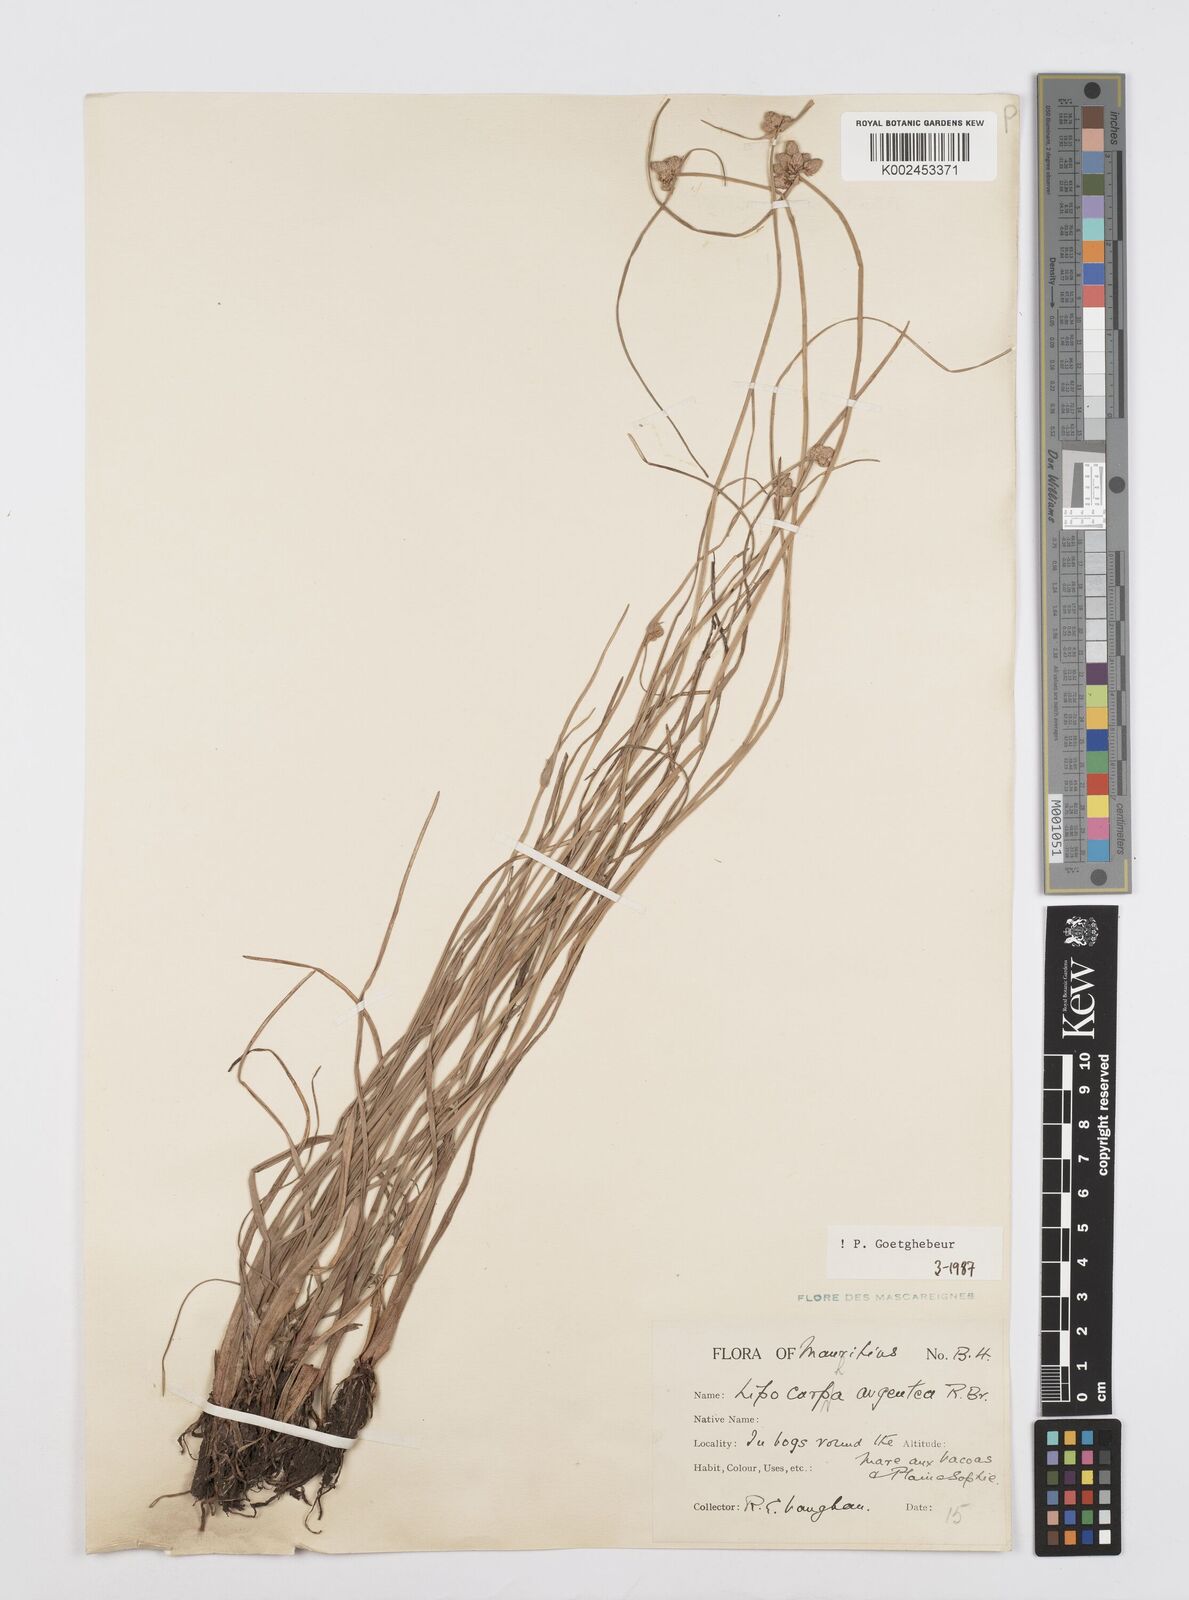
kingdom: Plantae
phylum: Tracheophyta
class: Liliopsida
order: Poales
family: Cyperaceae
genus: Cyperus
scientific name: Cyperus
